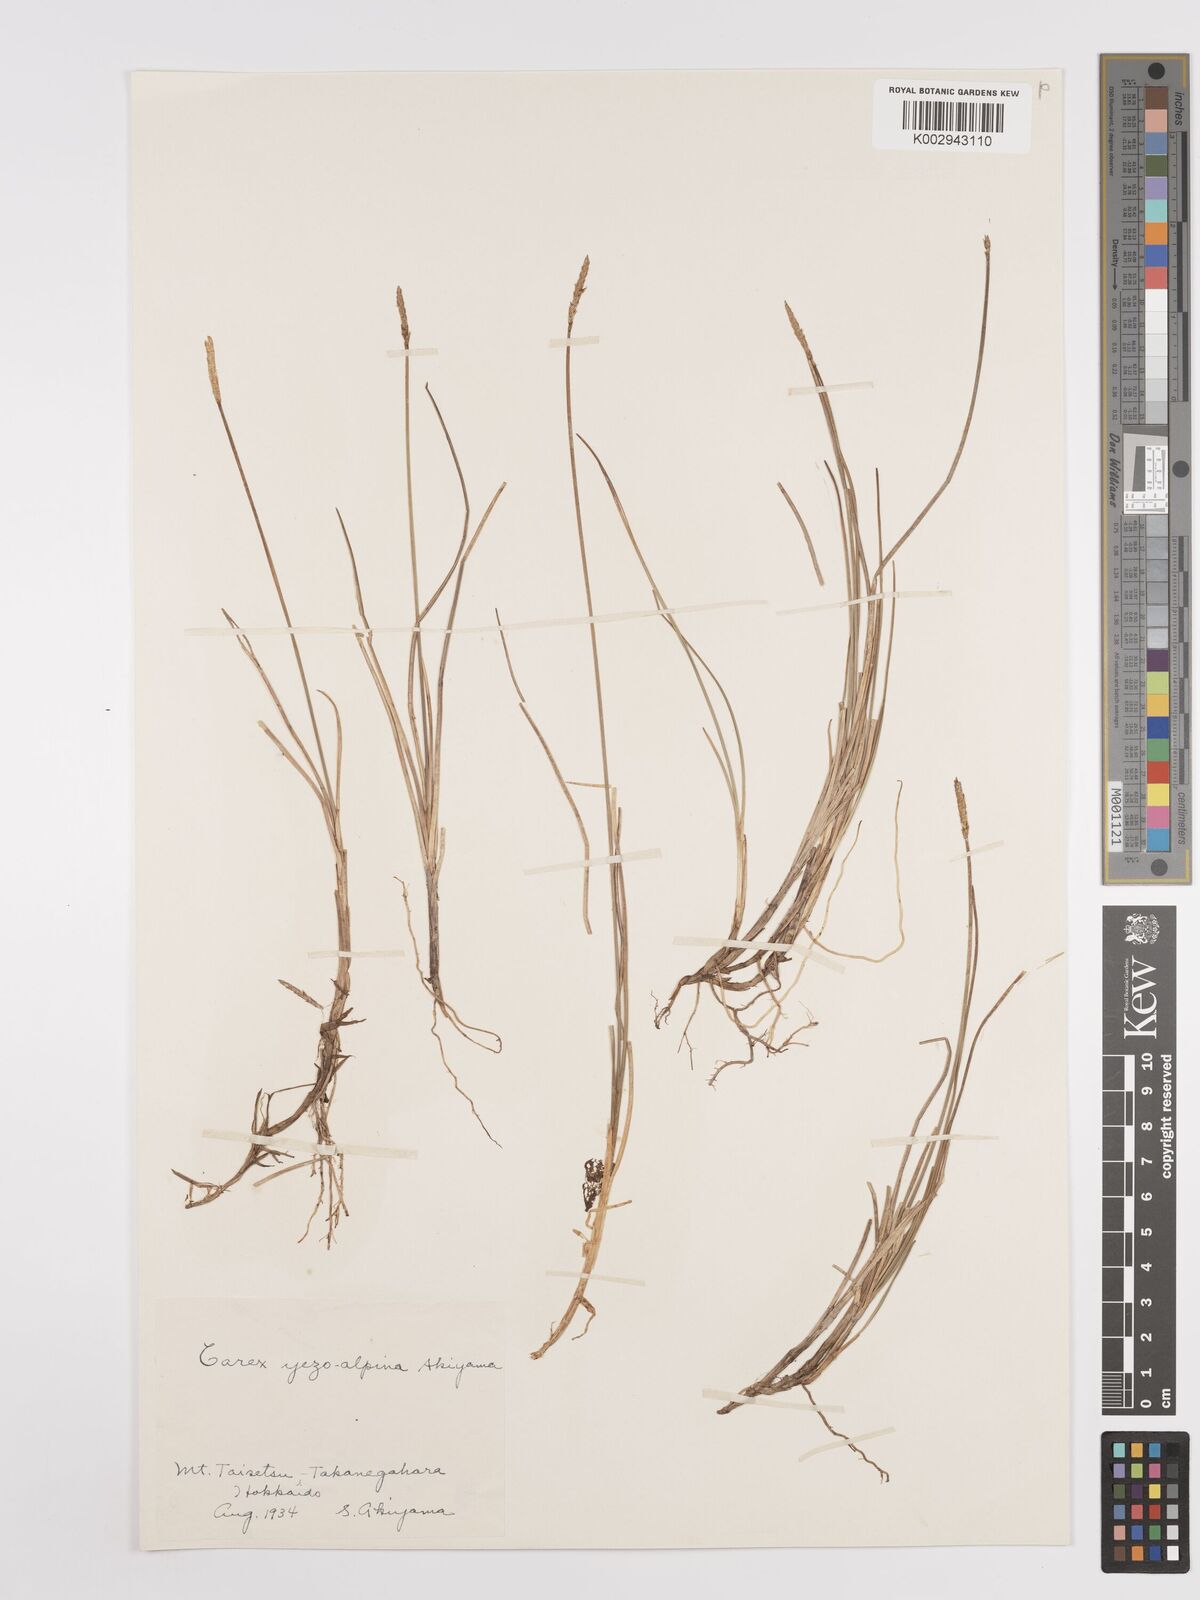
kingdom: Plantae
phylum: Tracheophyta
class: Liliopsida
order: Poales
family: Cyperaceae
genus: Carex
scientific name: Carex blepharicarpa
